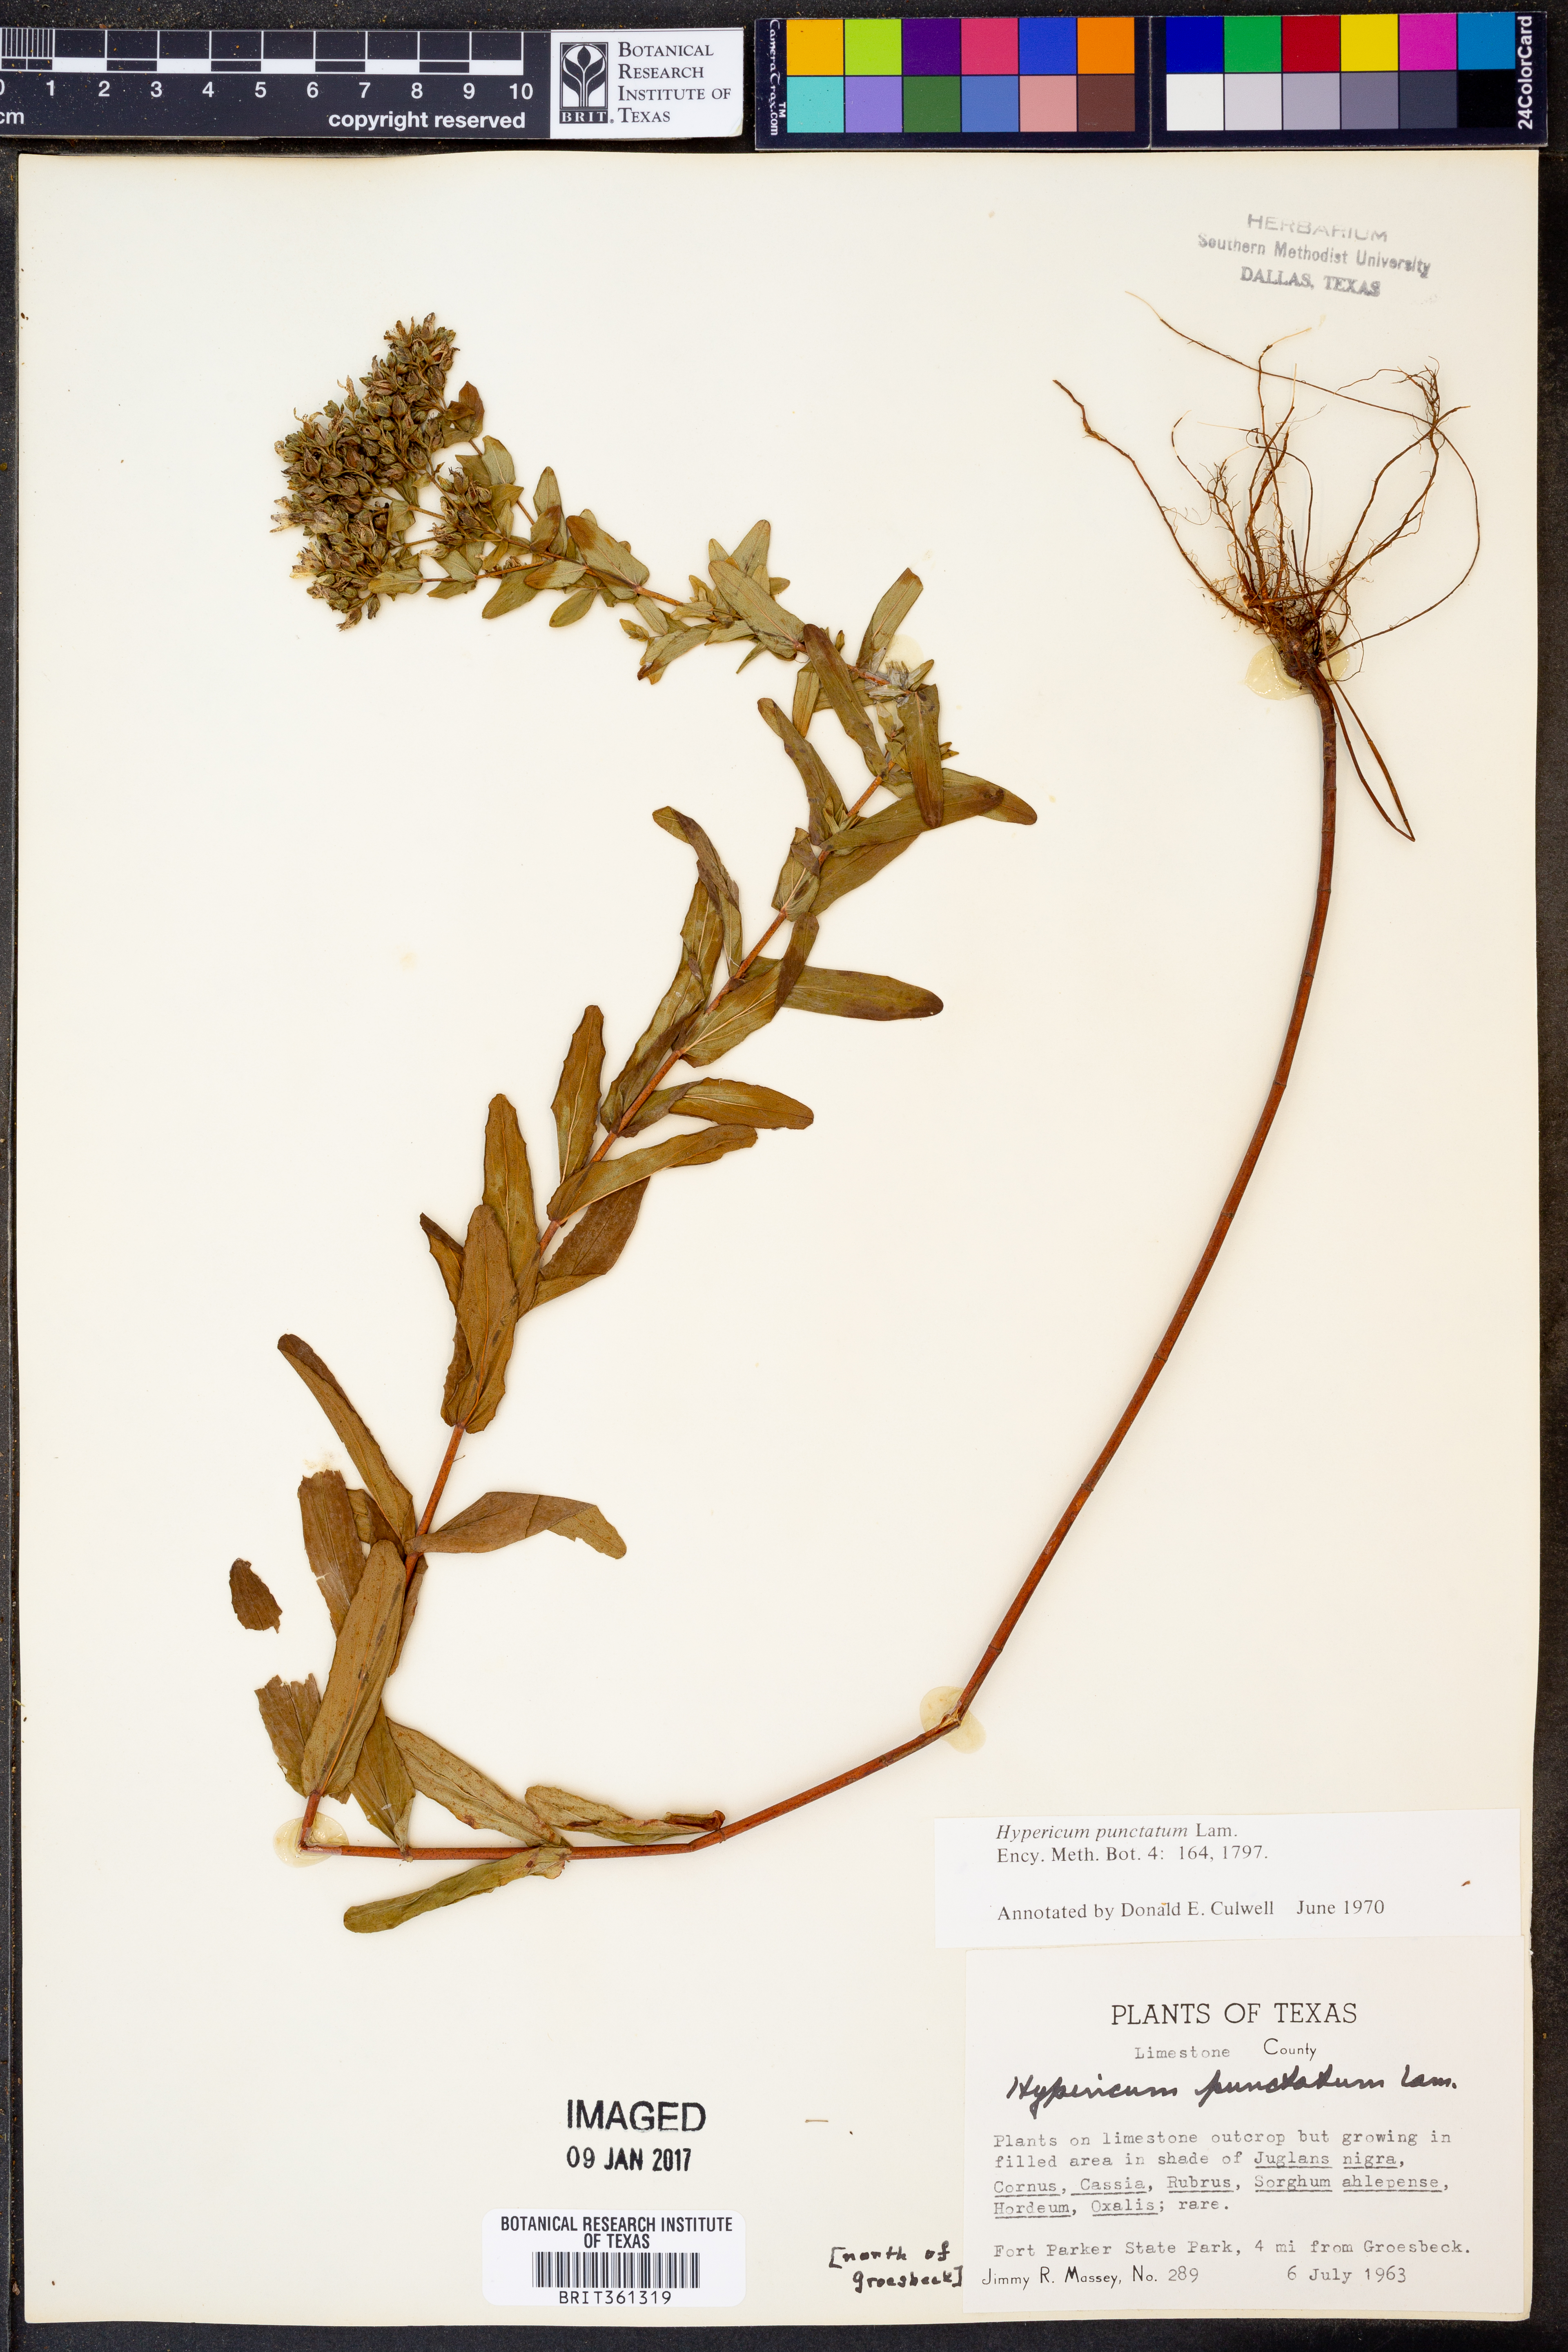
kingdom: Plantae
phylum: Tracheophyta
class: Magnoliopsida
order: Malpighiales
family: Hypericaceae
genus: Hypericum
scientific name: Hypericum punctatum
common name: Spotted st. john's-wort
